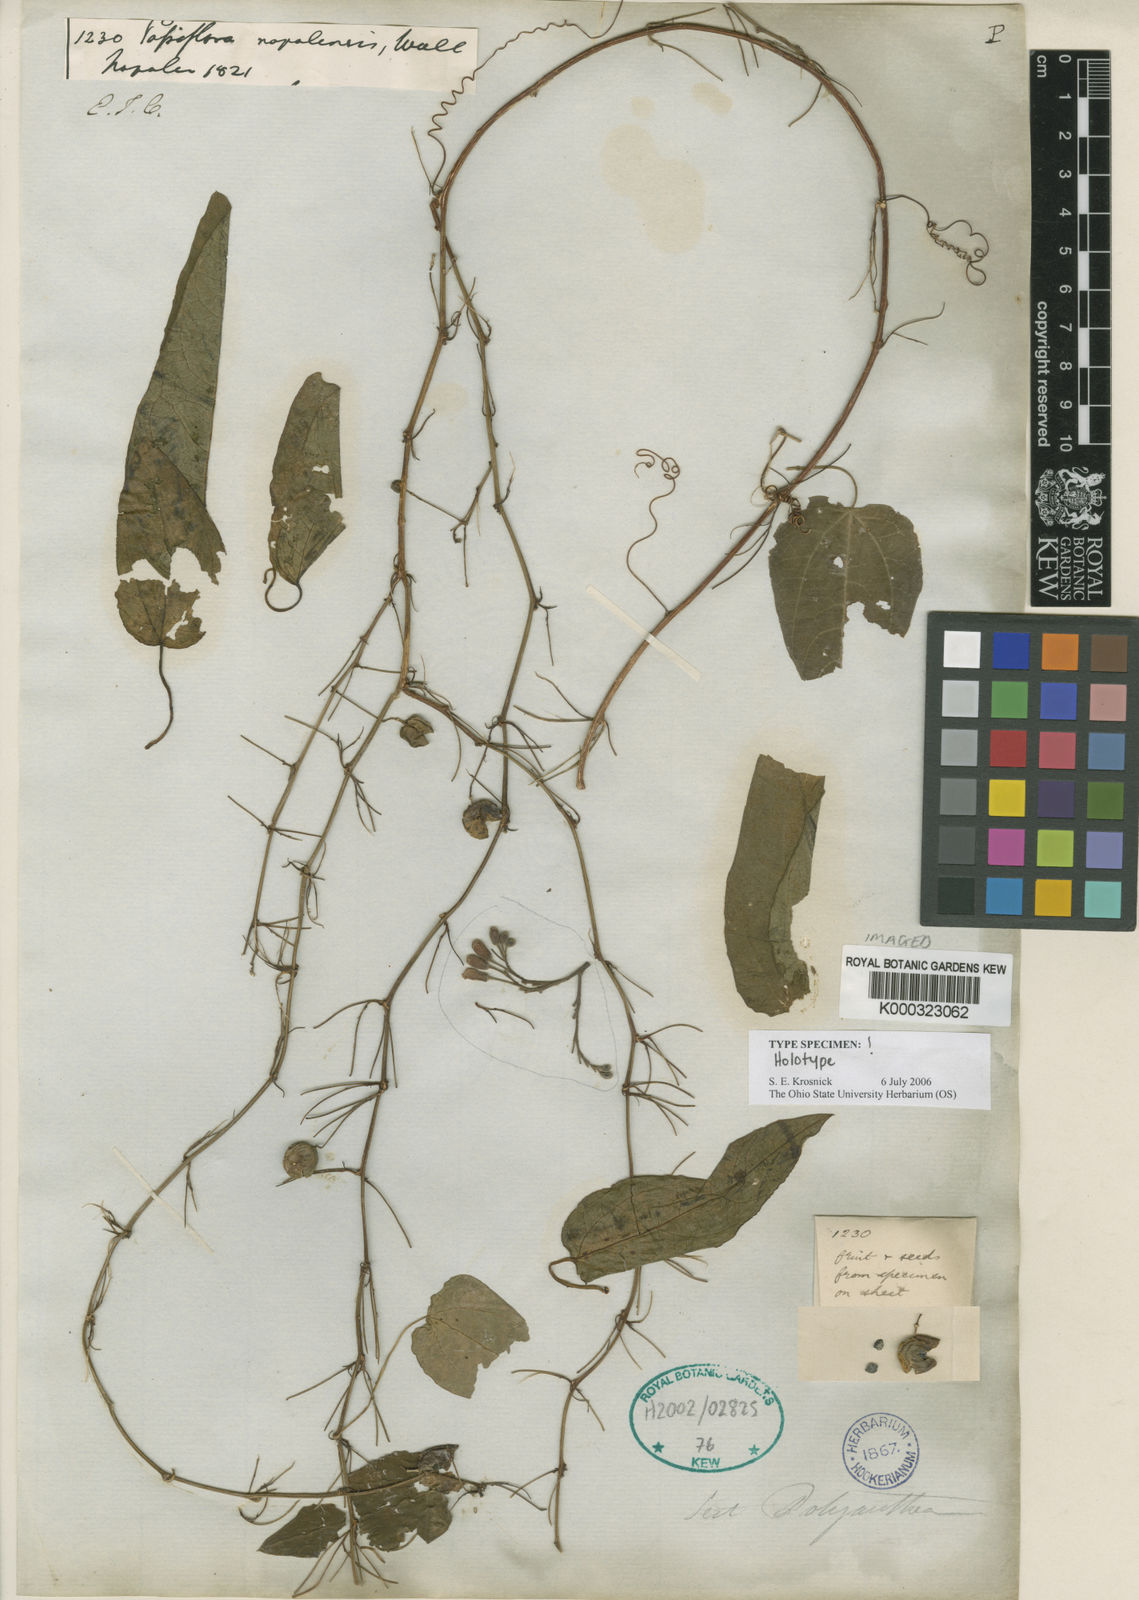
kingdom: Plantae
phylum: Tracheophyta
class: Magnoliopsida
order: Malpighiales
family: Passifloraceae
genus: Passiflora
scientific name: Passiflora
